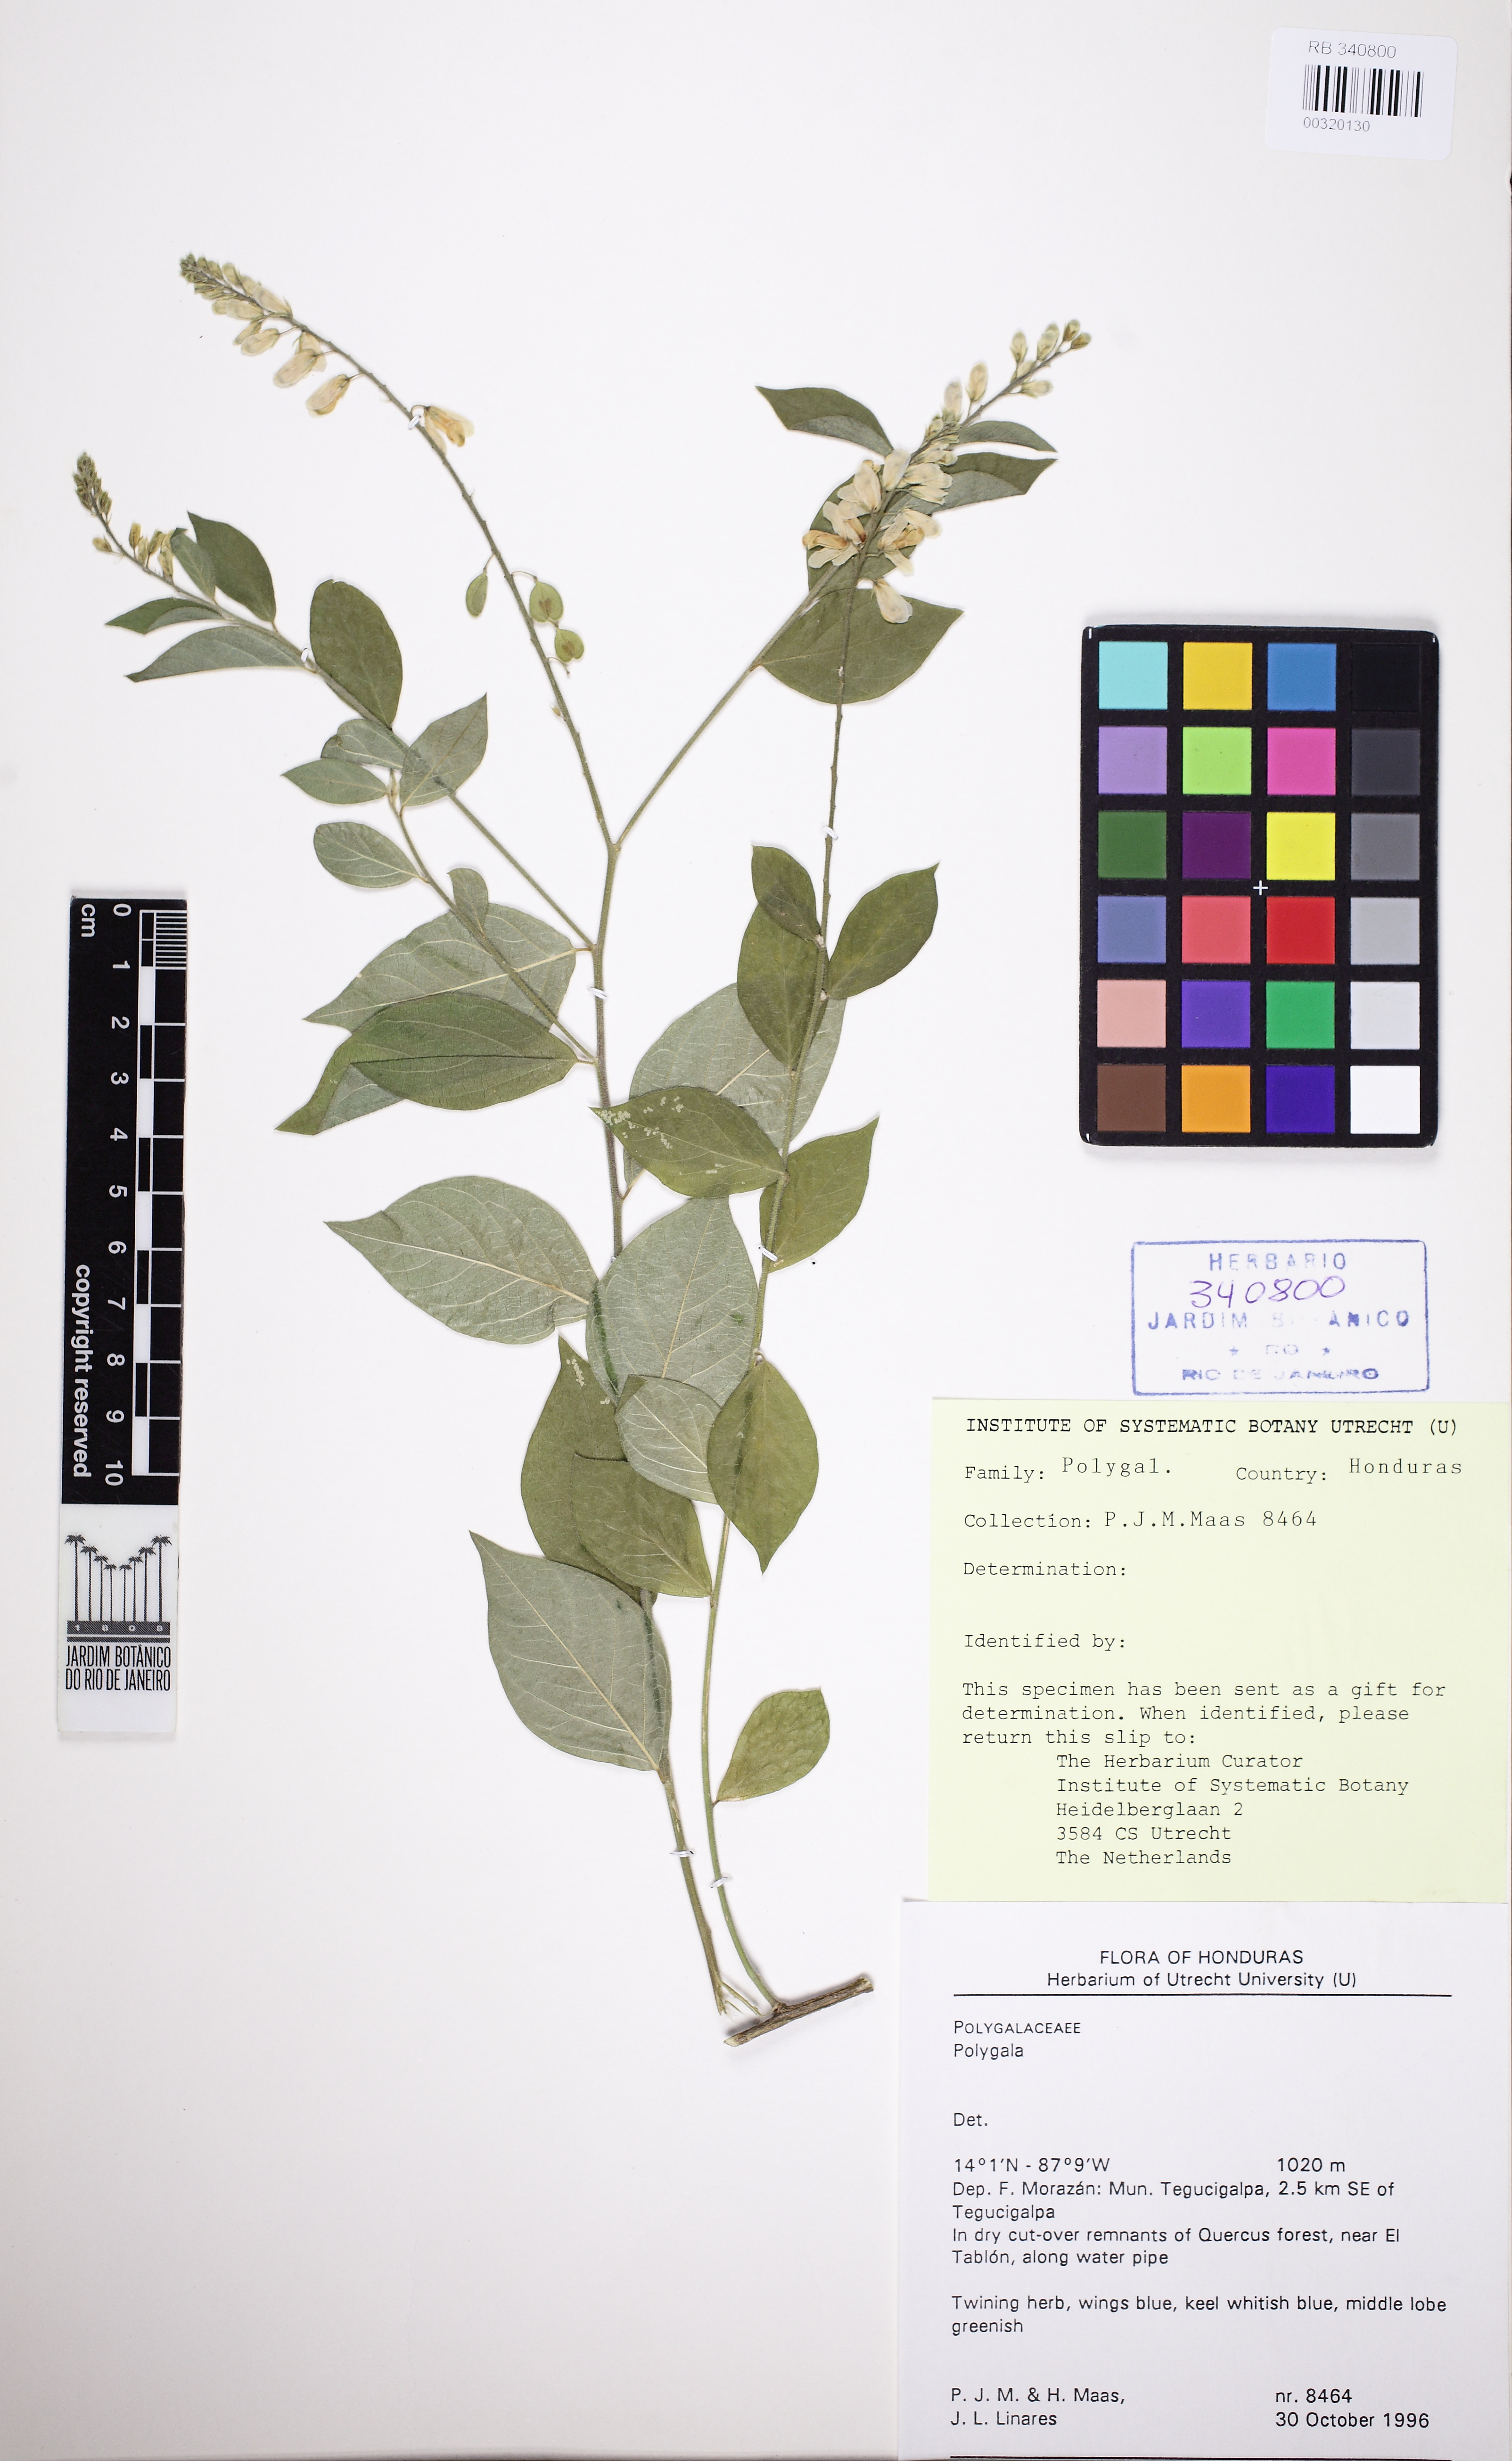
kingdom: Plantae
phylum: Tracheophyta
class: Magnoliopsida
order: Fabales
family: Polygalaceae
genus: Hebecarpa
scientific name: Hebecarpa
